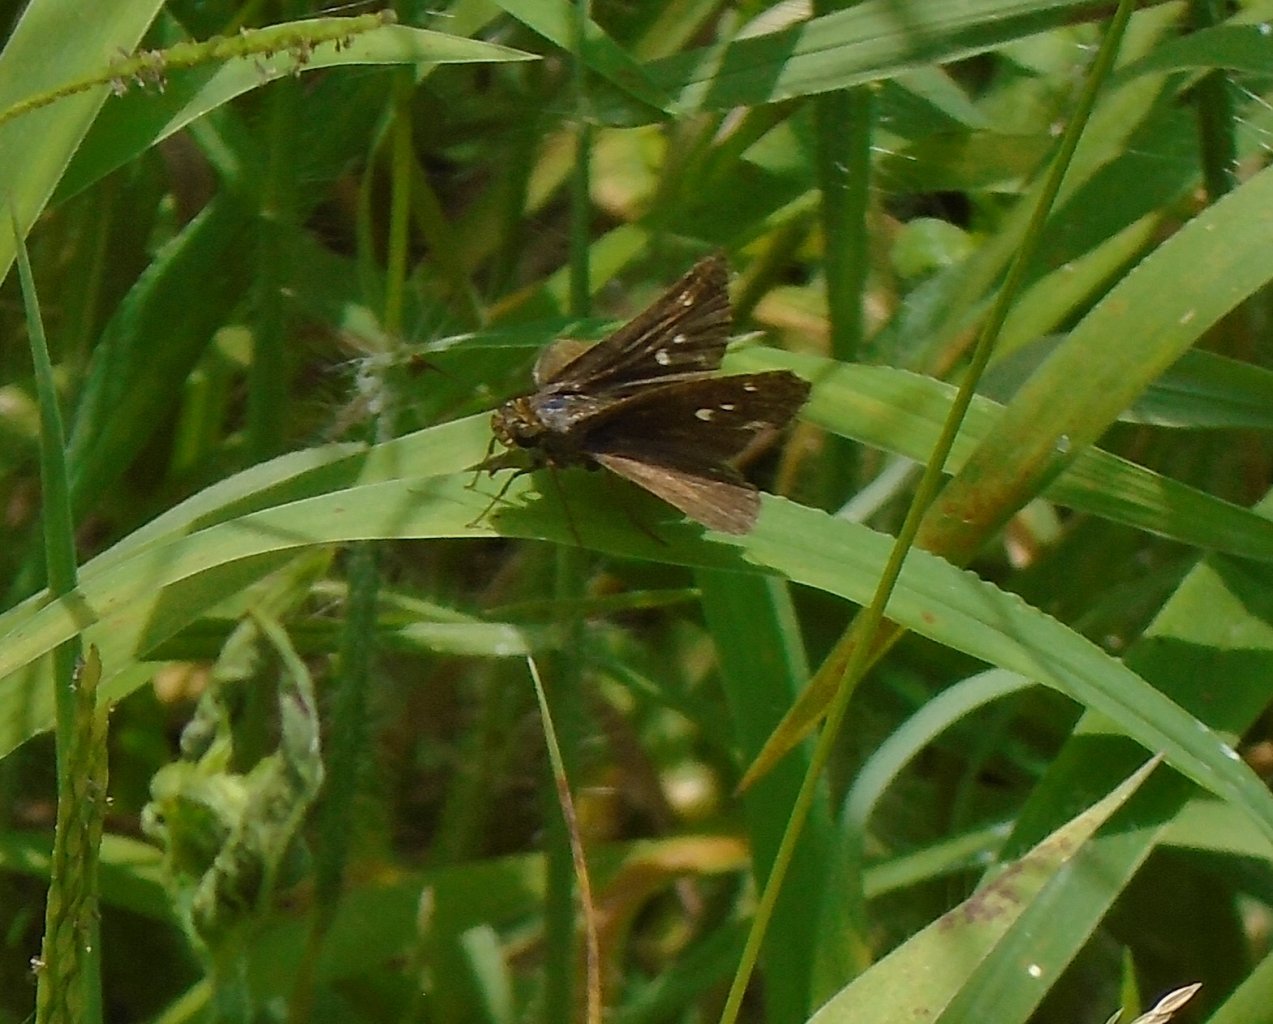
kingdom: Animalia
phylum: Arthropoda
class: Insecta
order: Lepidoptera
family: Hesperiidae
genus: Euphyes
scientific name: Euphyes vestris
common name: Dun Skipper
